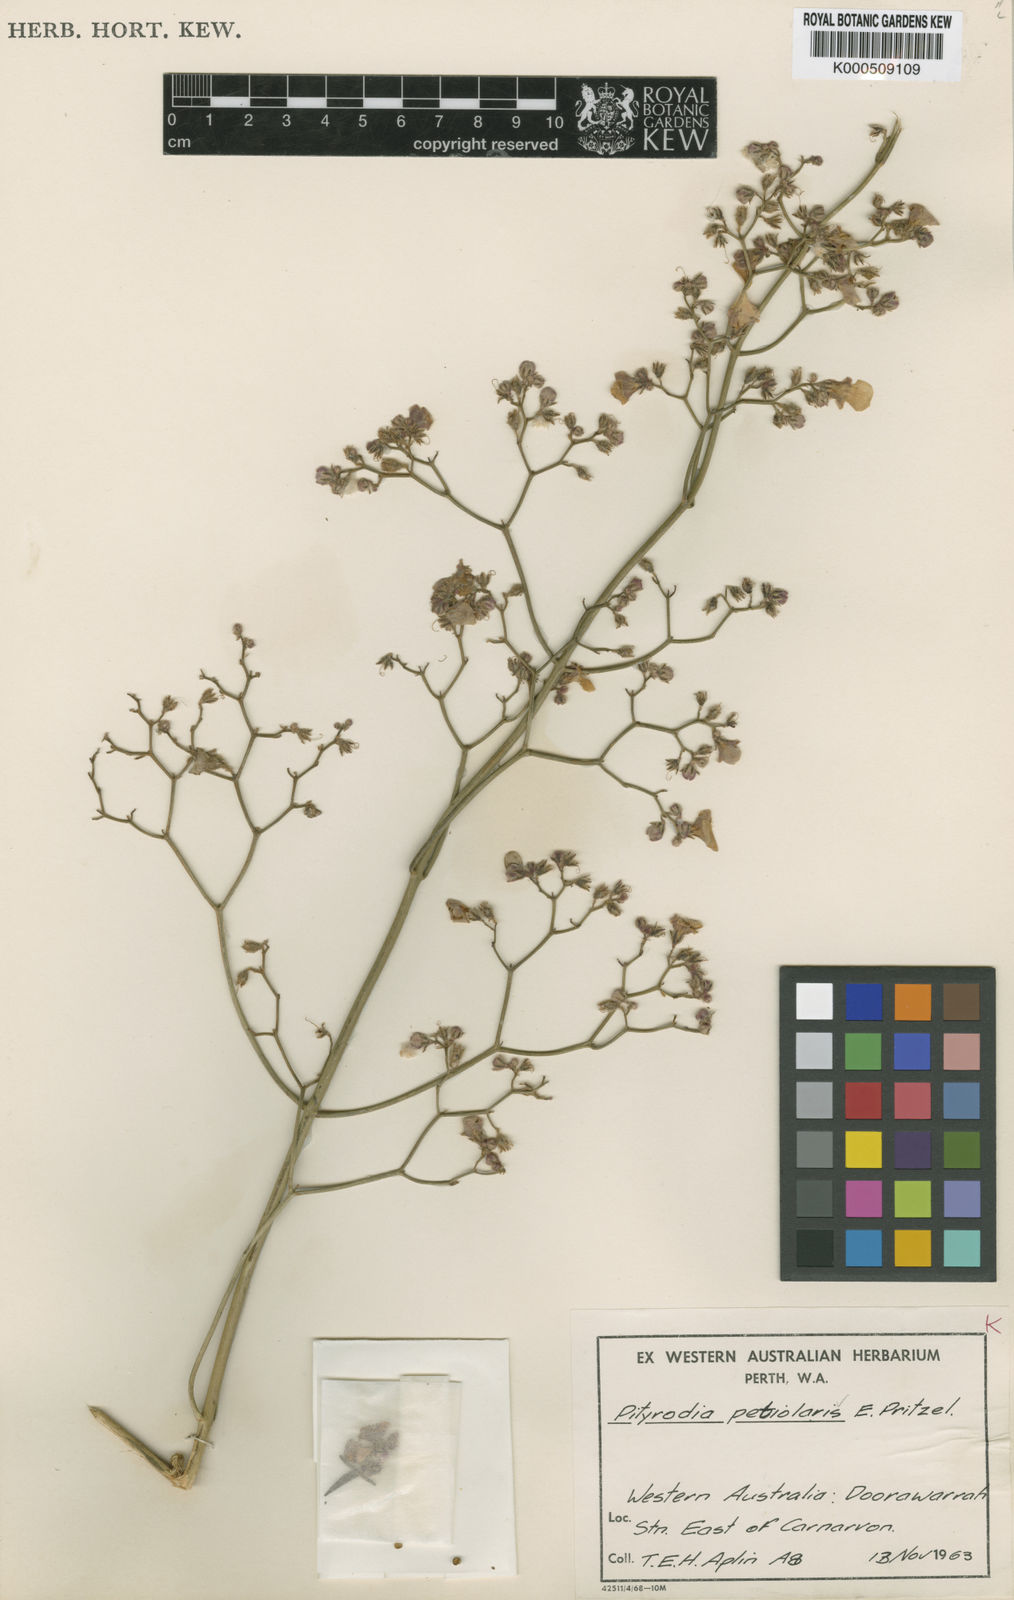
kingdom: Plantae
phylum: Tracheophyta
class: Magnoliopsida
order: Lamiales
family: Lamiaceae
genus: Quoya
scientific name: Quoya loxocarpa
